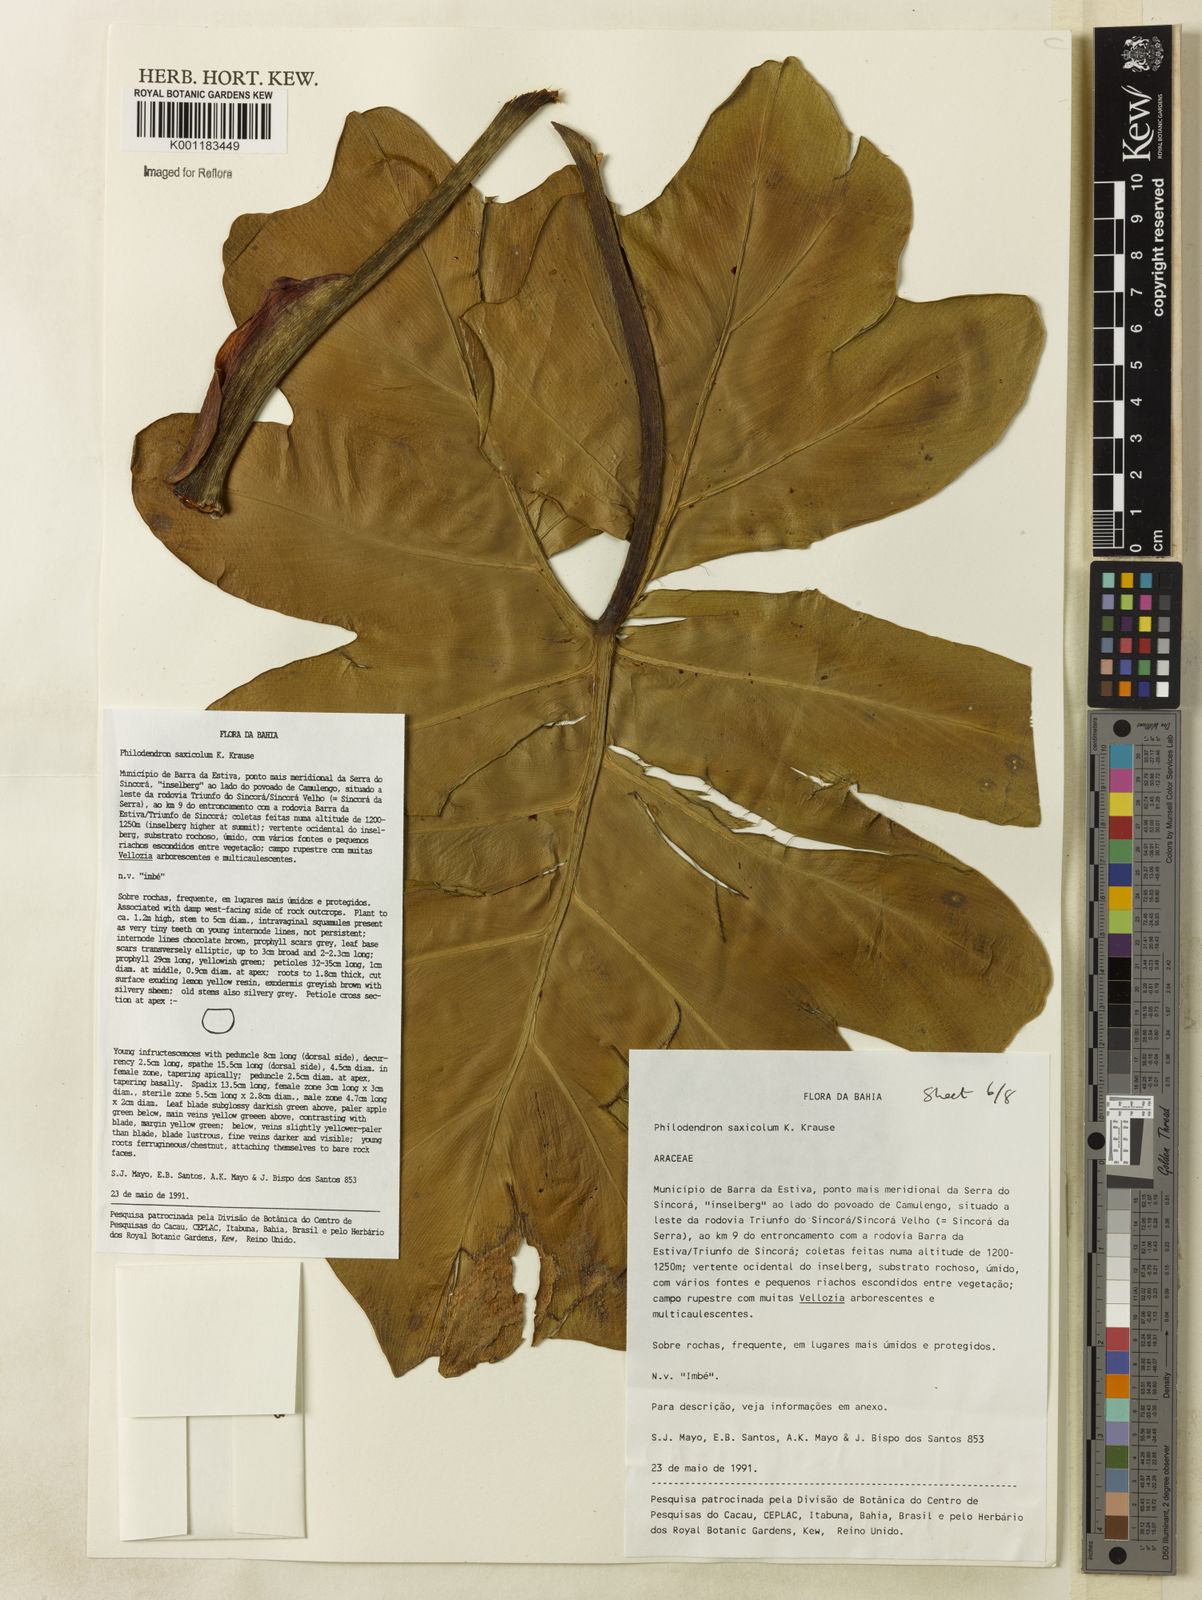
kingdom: Plantae
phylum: Tracheophyta
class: Liliopsida
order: Alismatales
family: Araceae
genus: Thaumatophyllum
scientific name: Thaumatophyllum saxicola
